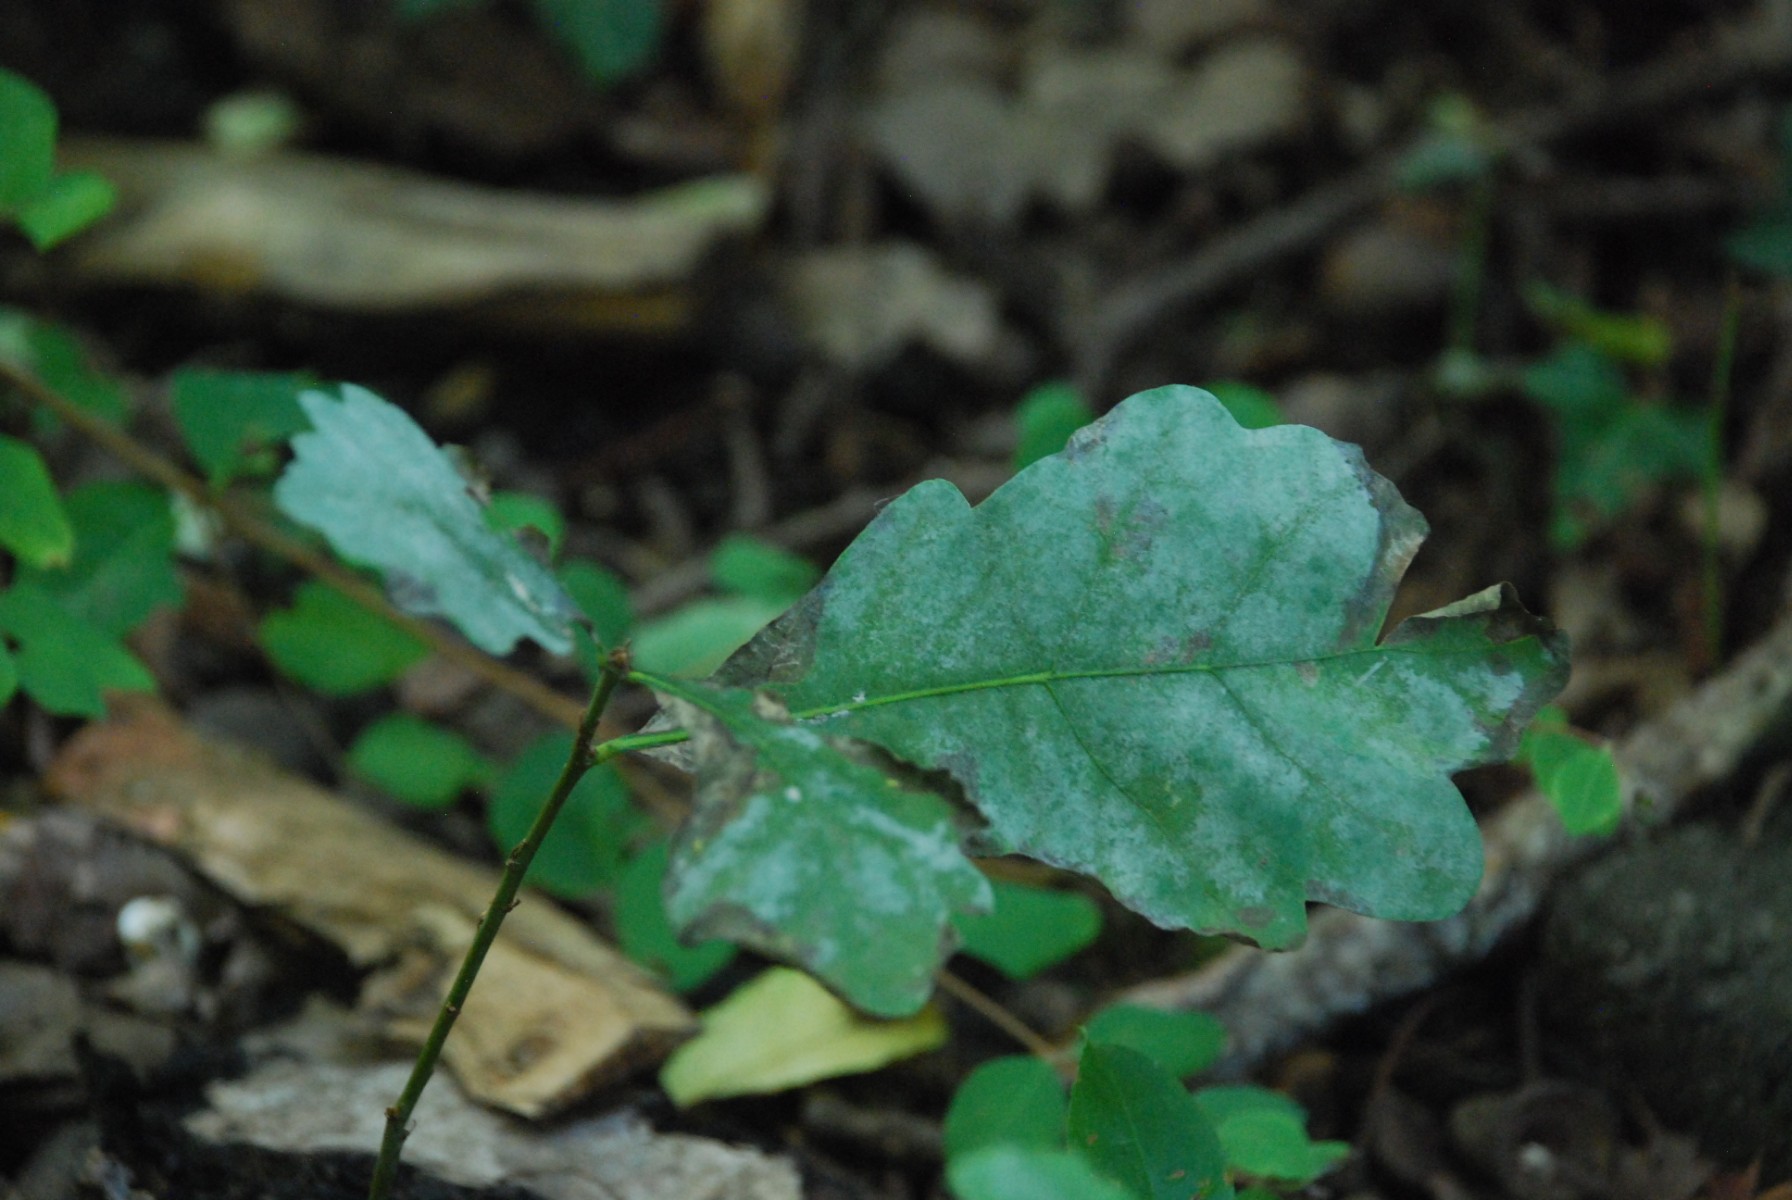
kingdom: Fungi
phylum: Ascomycota
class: Leotiomycetes
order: Helotiales
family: Erysiphaceae
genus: Erysiphe
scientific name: Erysiphe alphitoides
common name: ege-meldug
